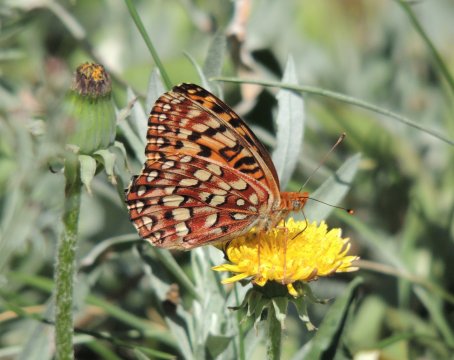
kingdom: Animalia
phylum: Arthropoda
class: Insecta
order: Lepidoptera
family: Nymphalidae
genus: Speyeria
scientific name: Speyeria hydaspe
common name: Hydaspe Fritillary
